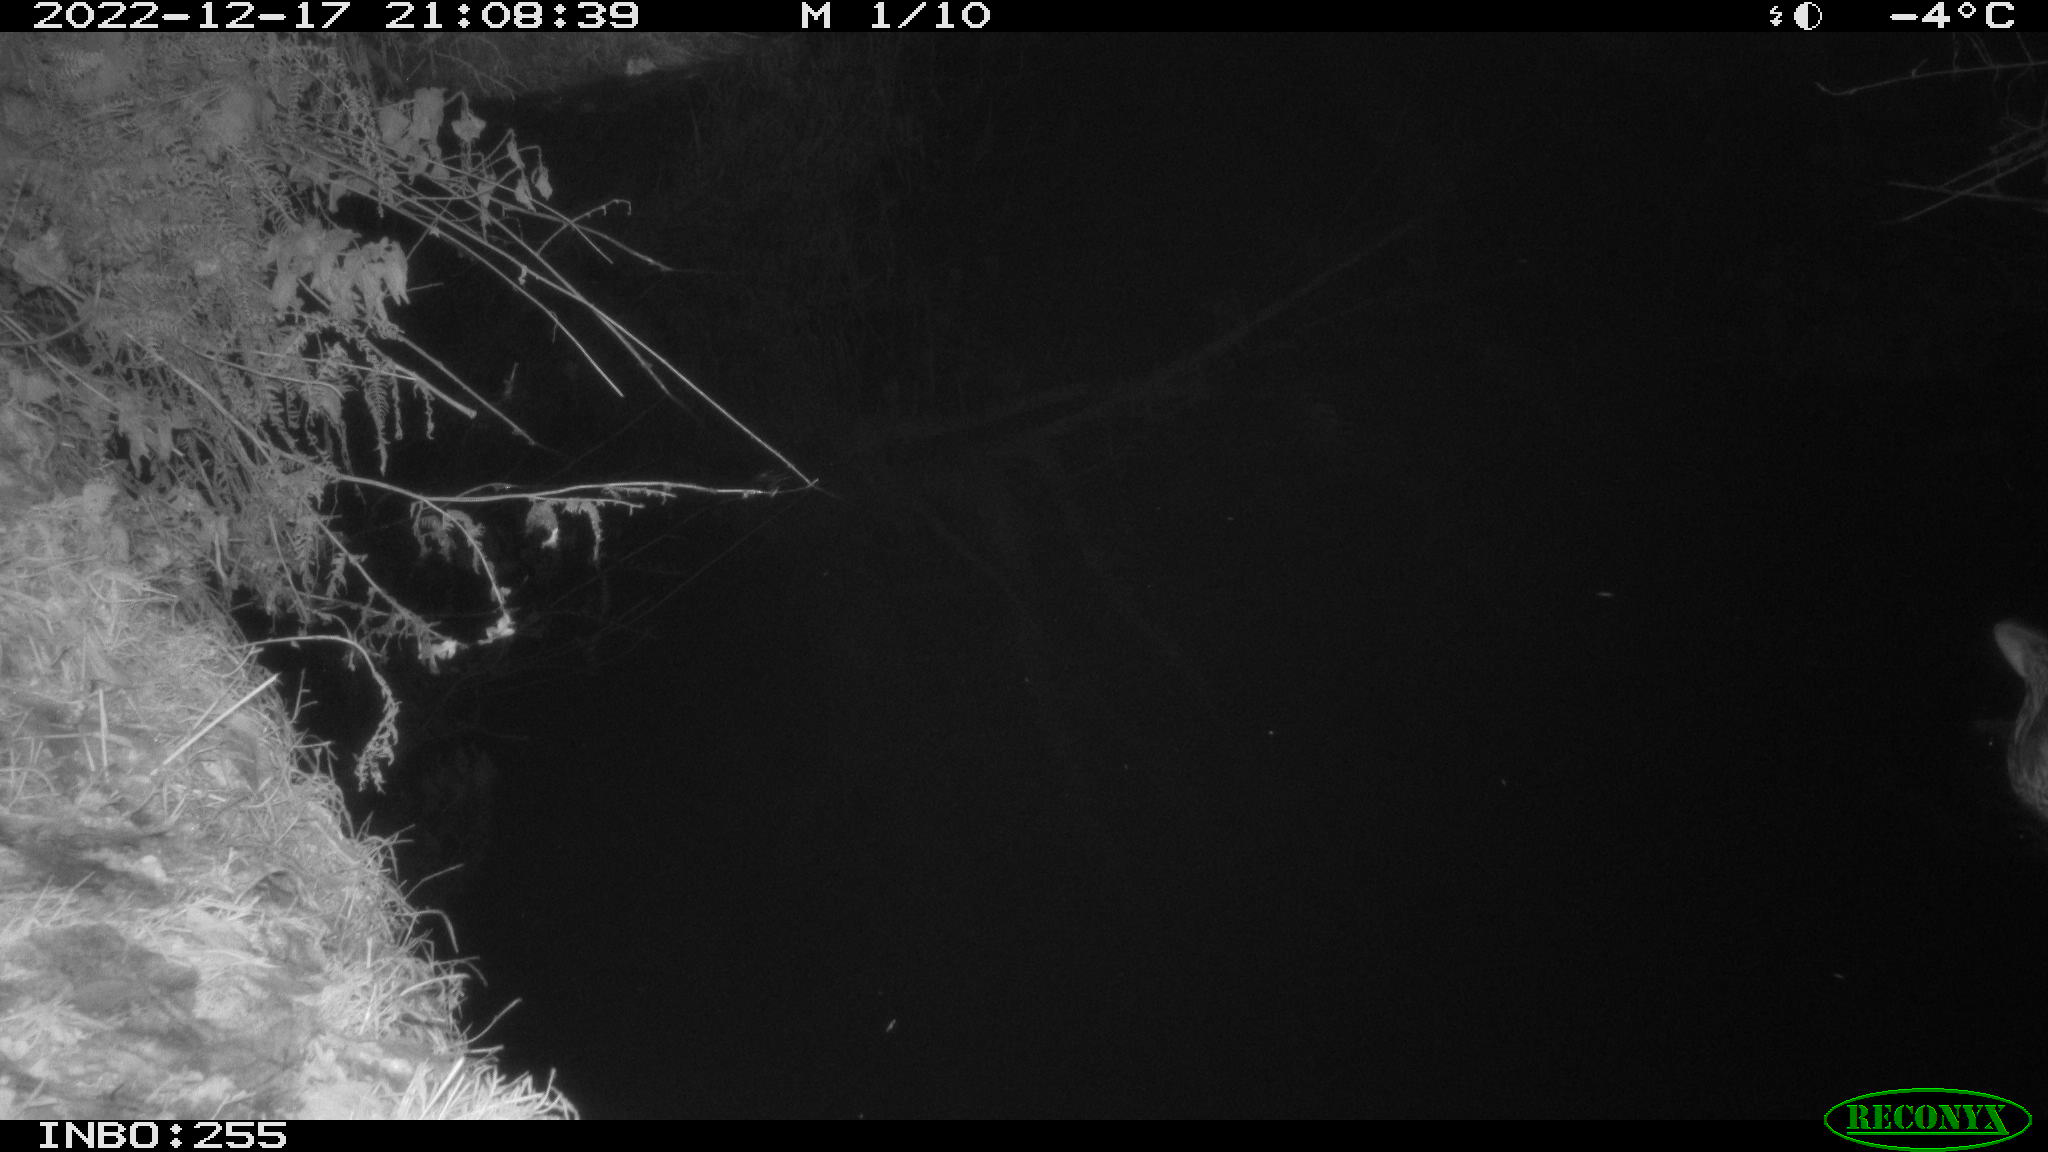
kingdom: Animalia
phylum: Chordata
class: Aves
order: Anseriformes
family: Anatidae
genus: Anas
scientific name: Anas
